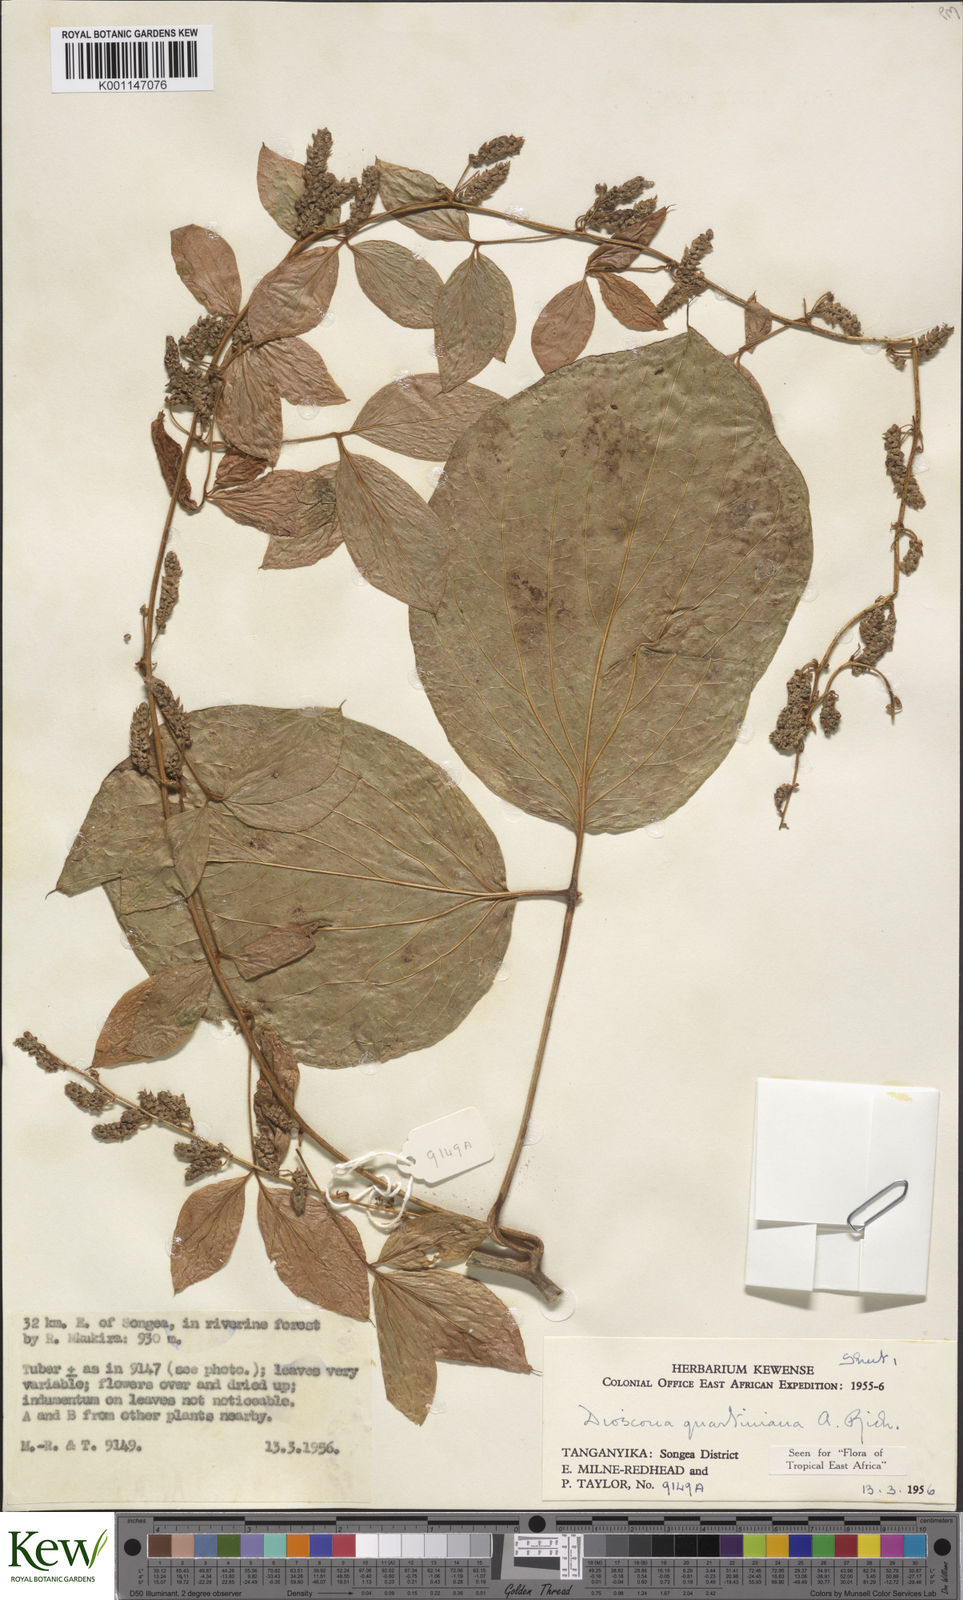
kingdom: Plantae
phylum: Tracheophyta
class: Liliopsida
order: Dioscoreales
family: Dioscoreaceae
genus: Dioscorea
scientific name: Dioscorea quartiniana
